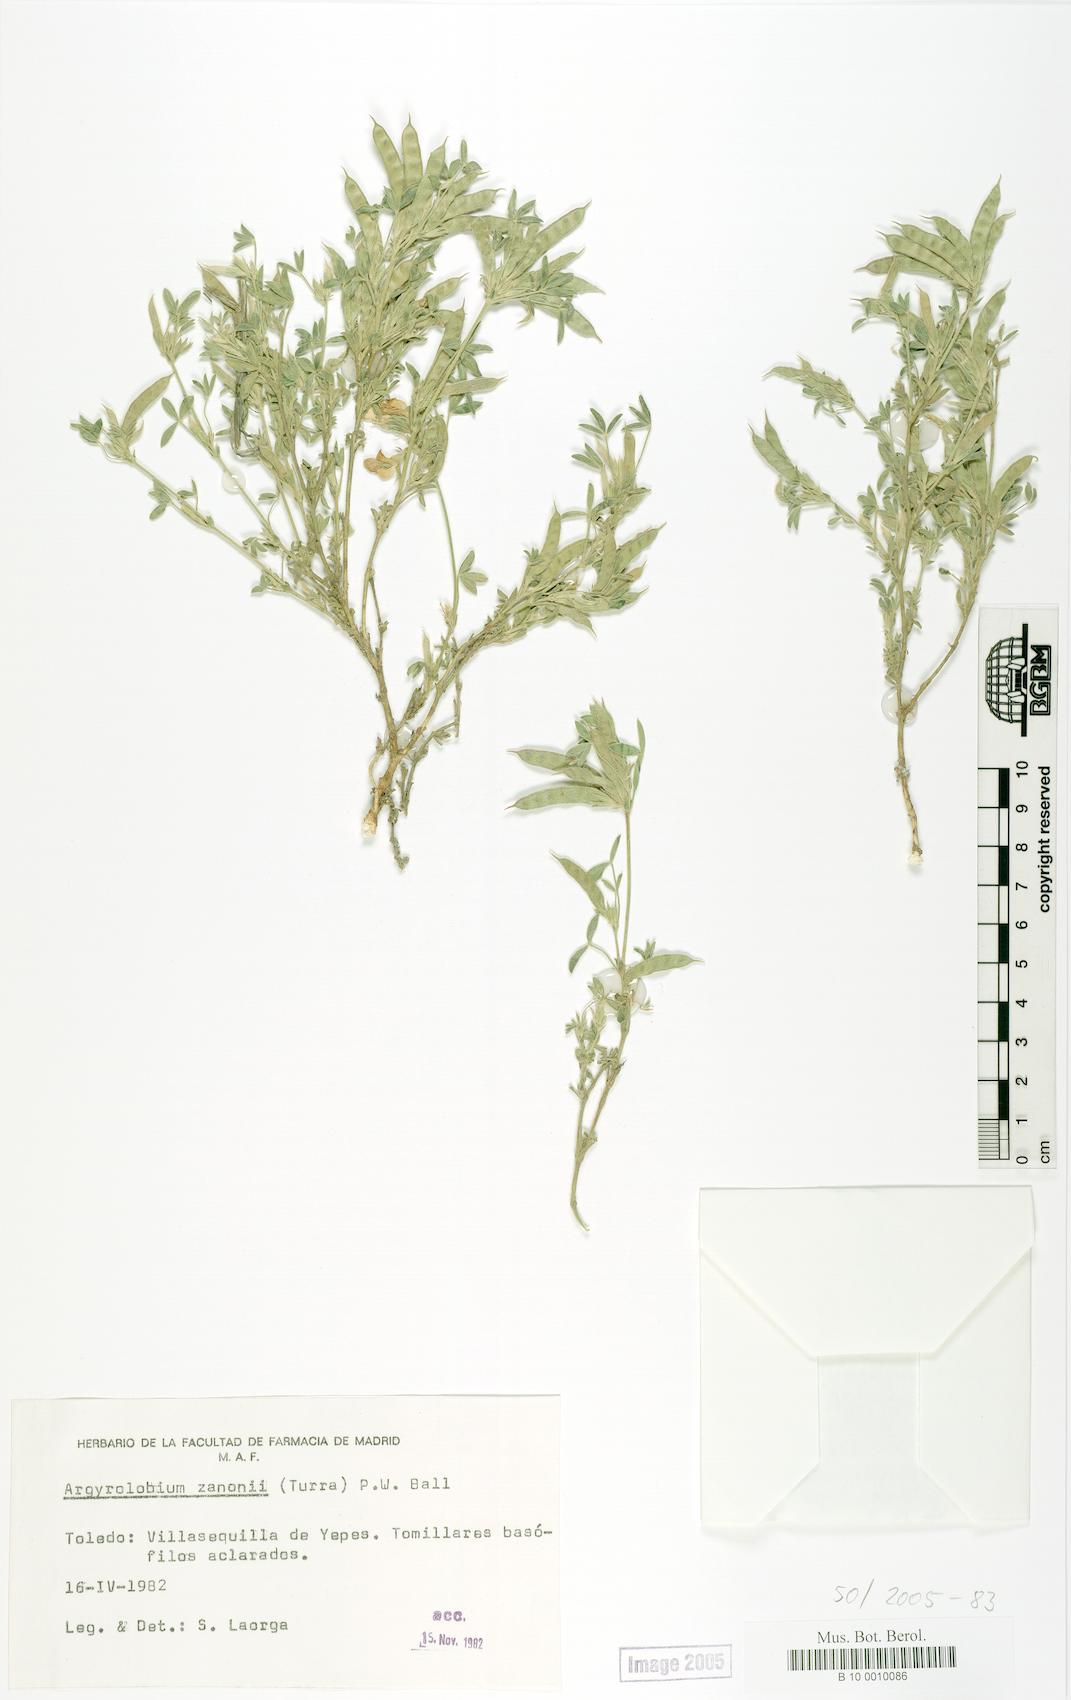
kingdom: Plantae
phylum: Tracheophyta
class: Magnoliopsida
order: Fabales
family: Fabaceae
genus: Argyrolobium
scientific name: Argyrolobium zanonii
